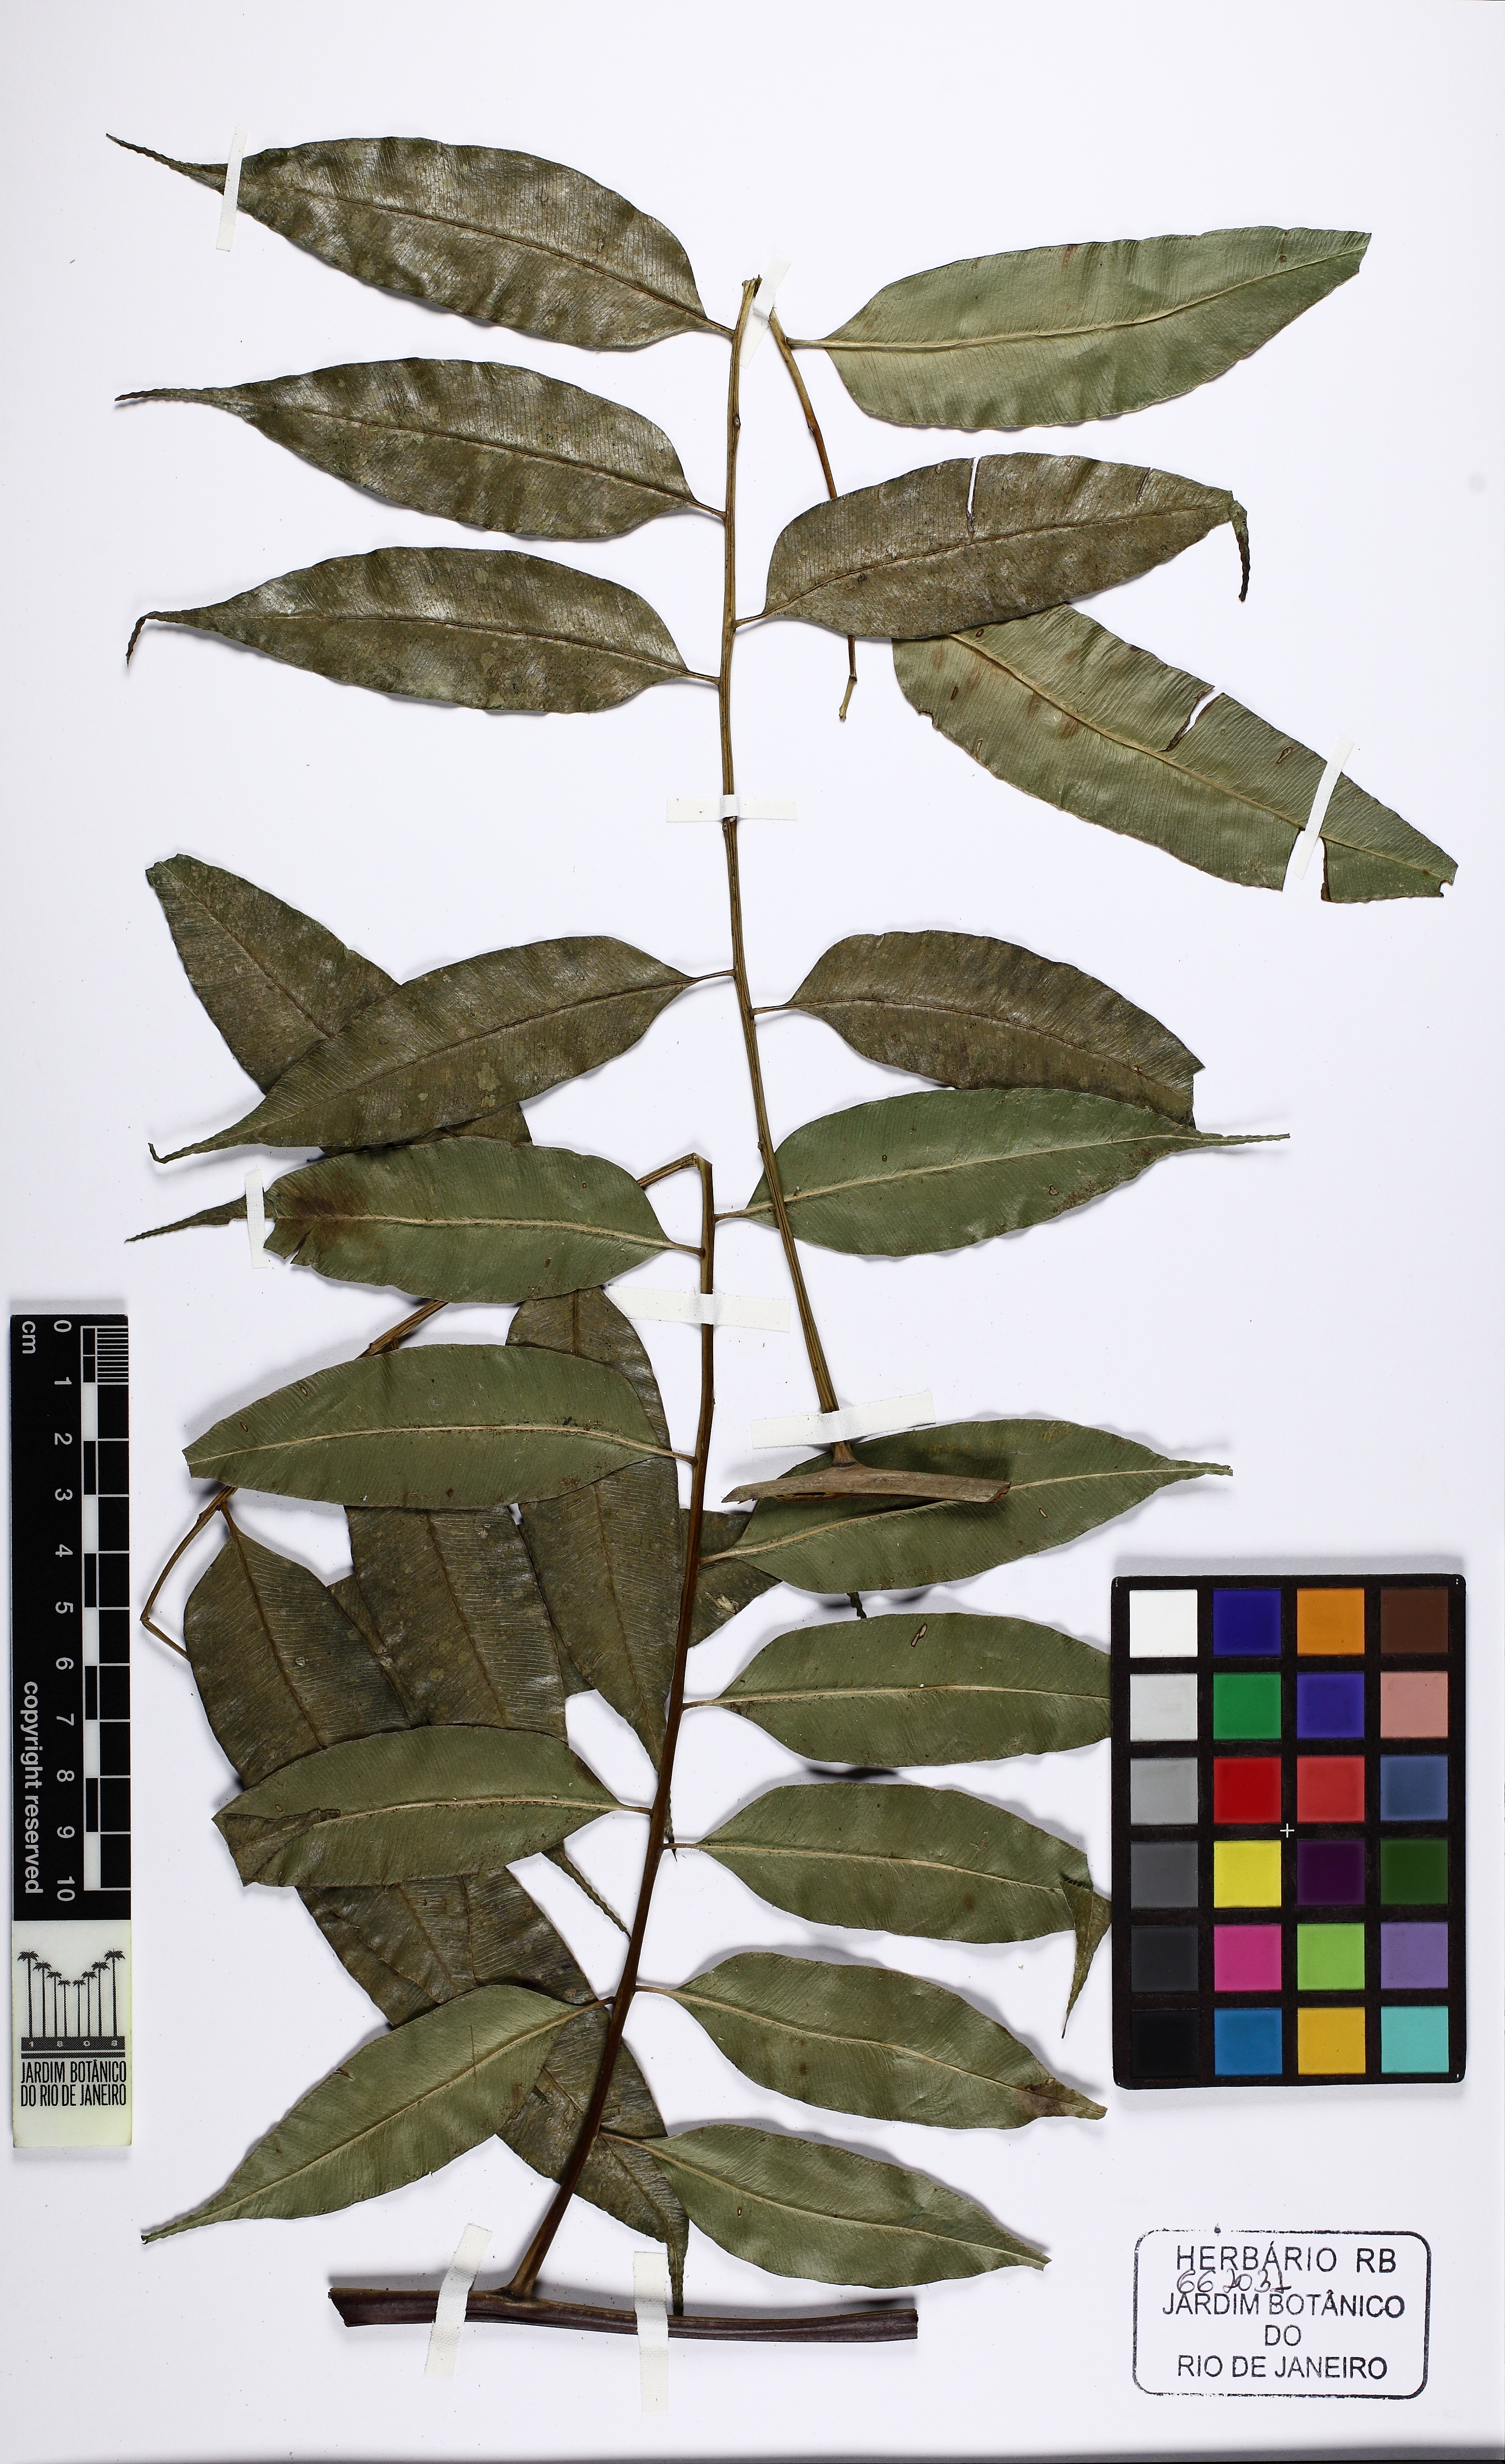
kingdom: Plantae
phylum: Tracheophyta
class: Polypodiopsida
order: Cyatheales
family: Cyatheaceae
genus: Cyathea
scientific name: Cyathea corcovadensis
